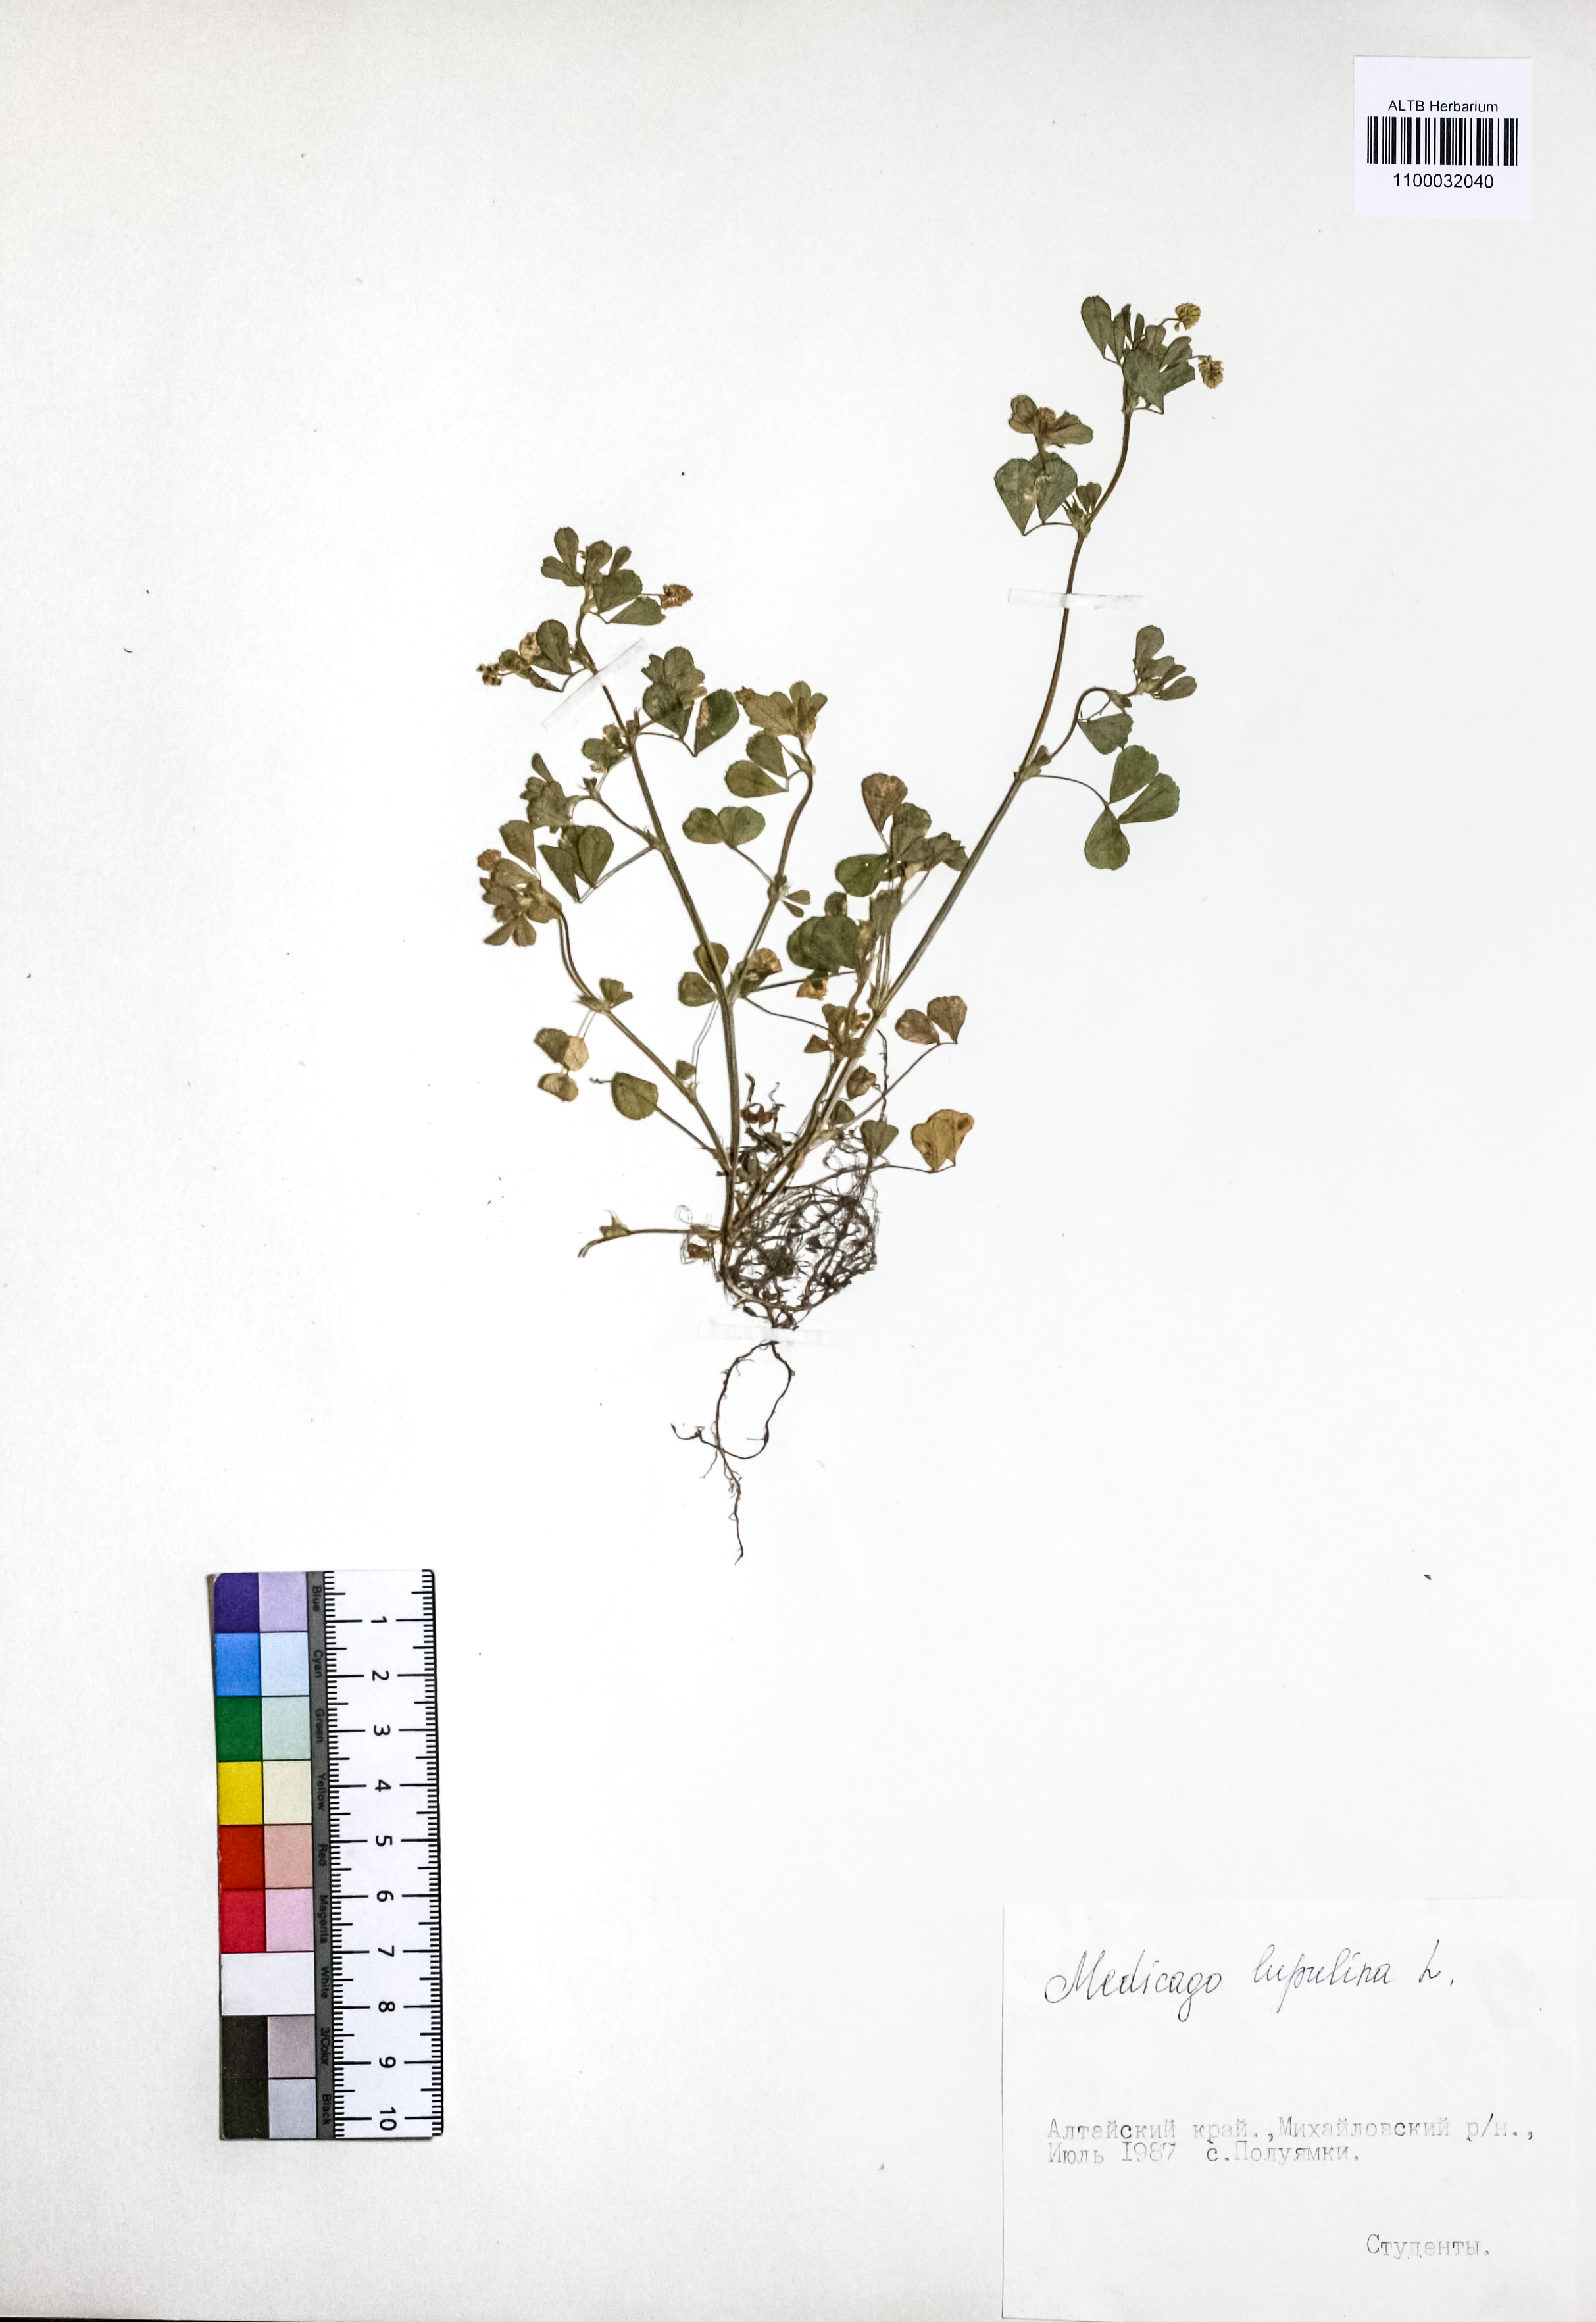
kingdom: Plantae
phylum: Tracheophyta
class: Magnoliopsida
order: Fabales
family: Fabaceae
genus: Medicago
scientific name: Medicago lupulina
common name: Black medick
